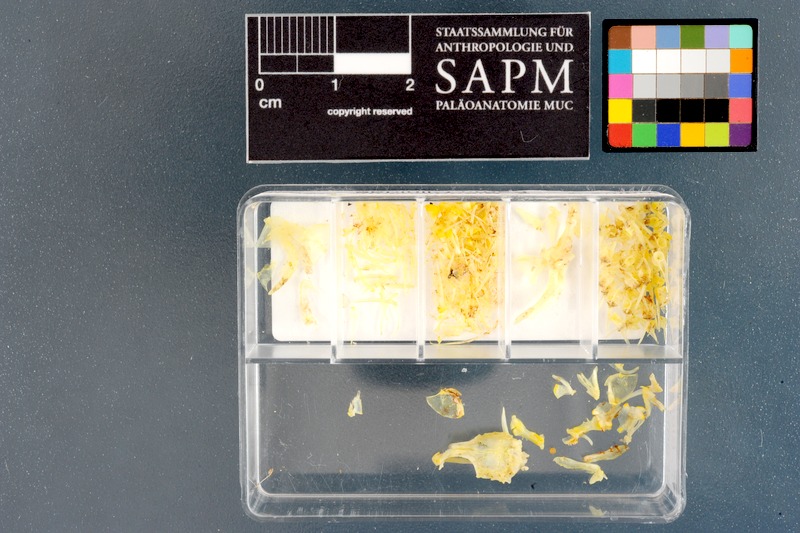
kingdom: Animalia
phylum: Chordata
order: Perciformes
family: Clinidae
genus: Blennioclinus
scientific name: Blennioclinus brachycephalus
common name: Lace klipfish
